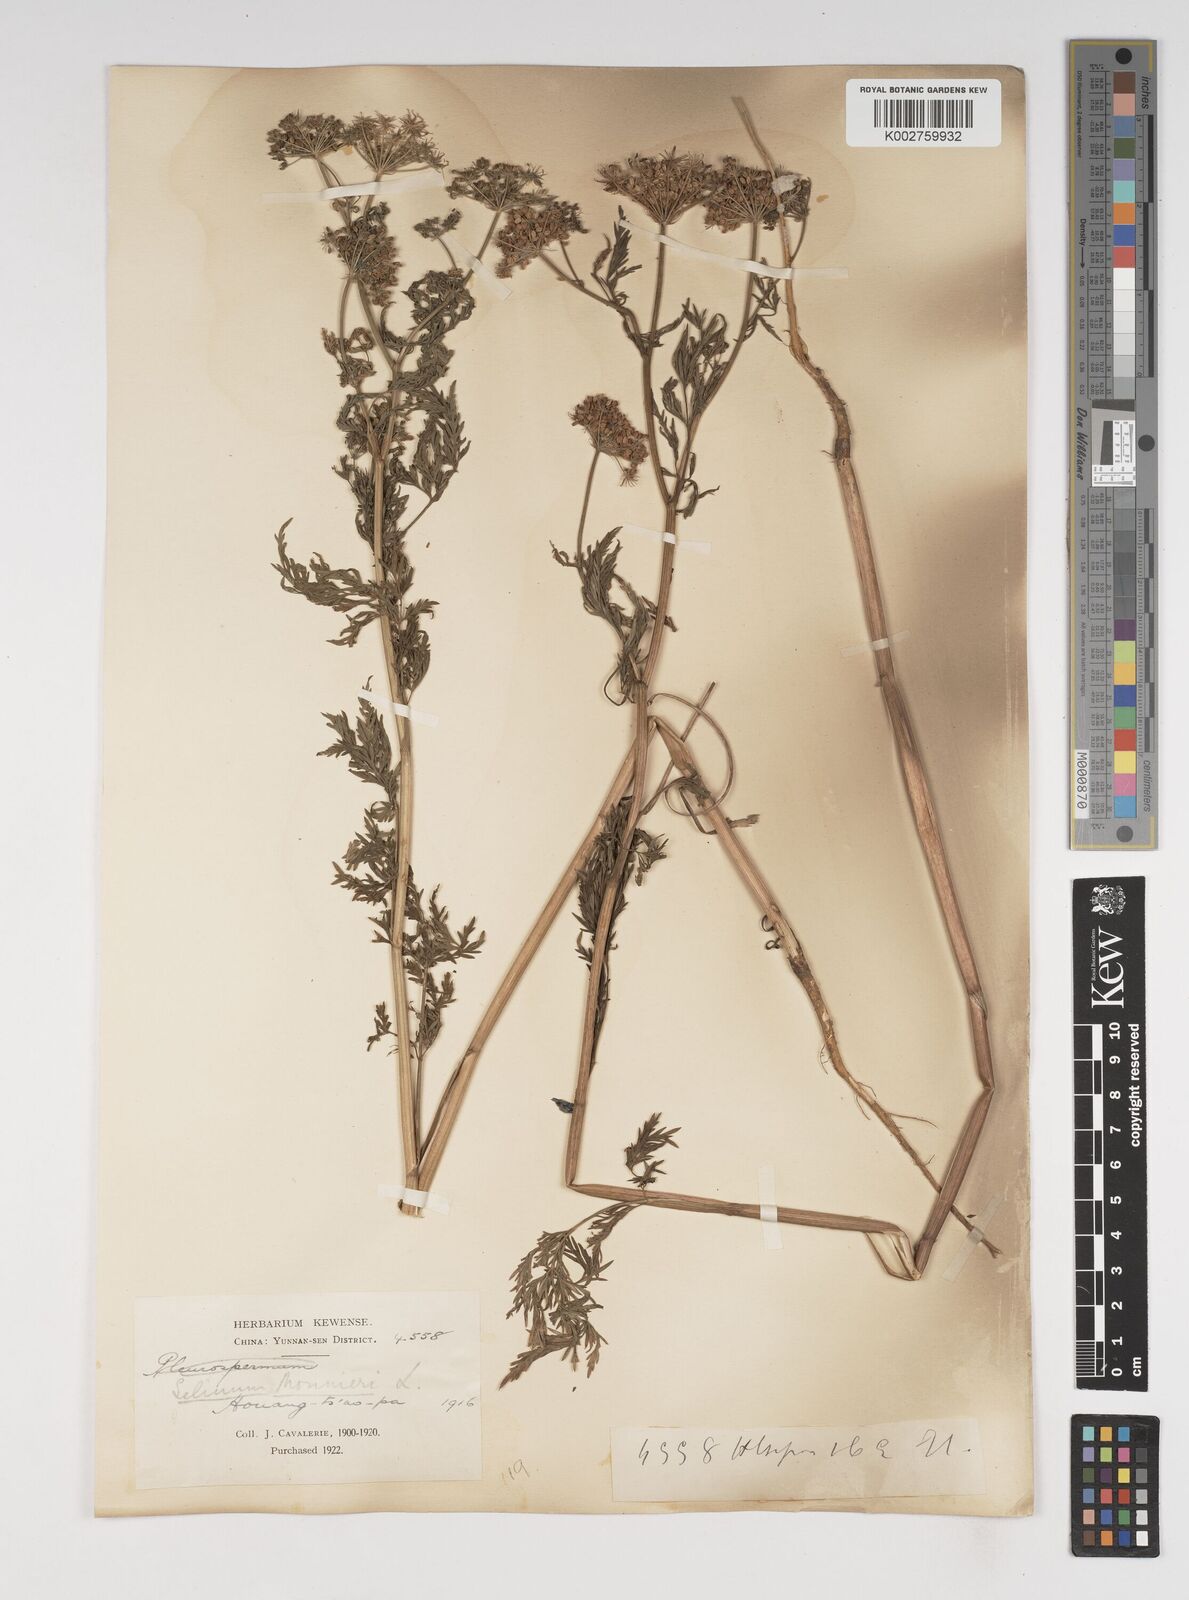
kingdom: Plantae
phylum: Tracheophyta
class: Magnoliopsida
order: Apiales
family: Apiaceae
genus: Cnidium
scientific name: Cnidium monnieri
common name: Monnier's snowparsley
